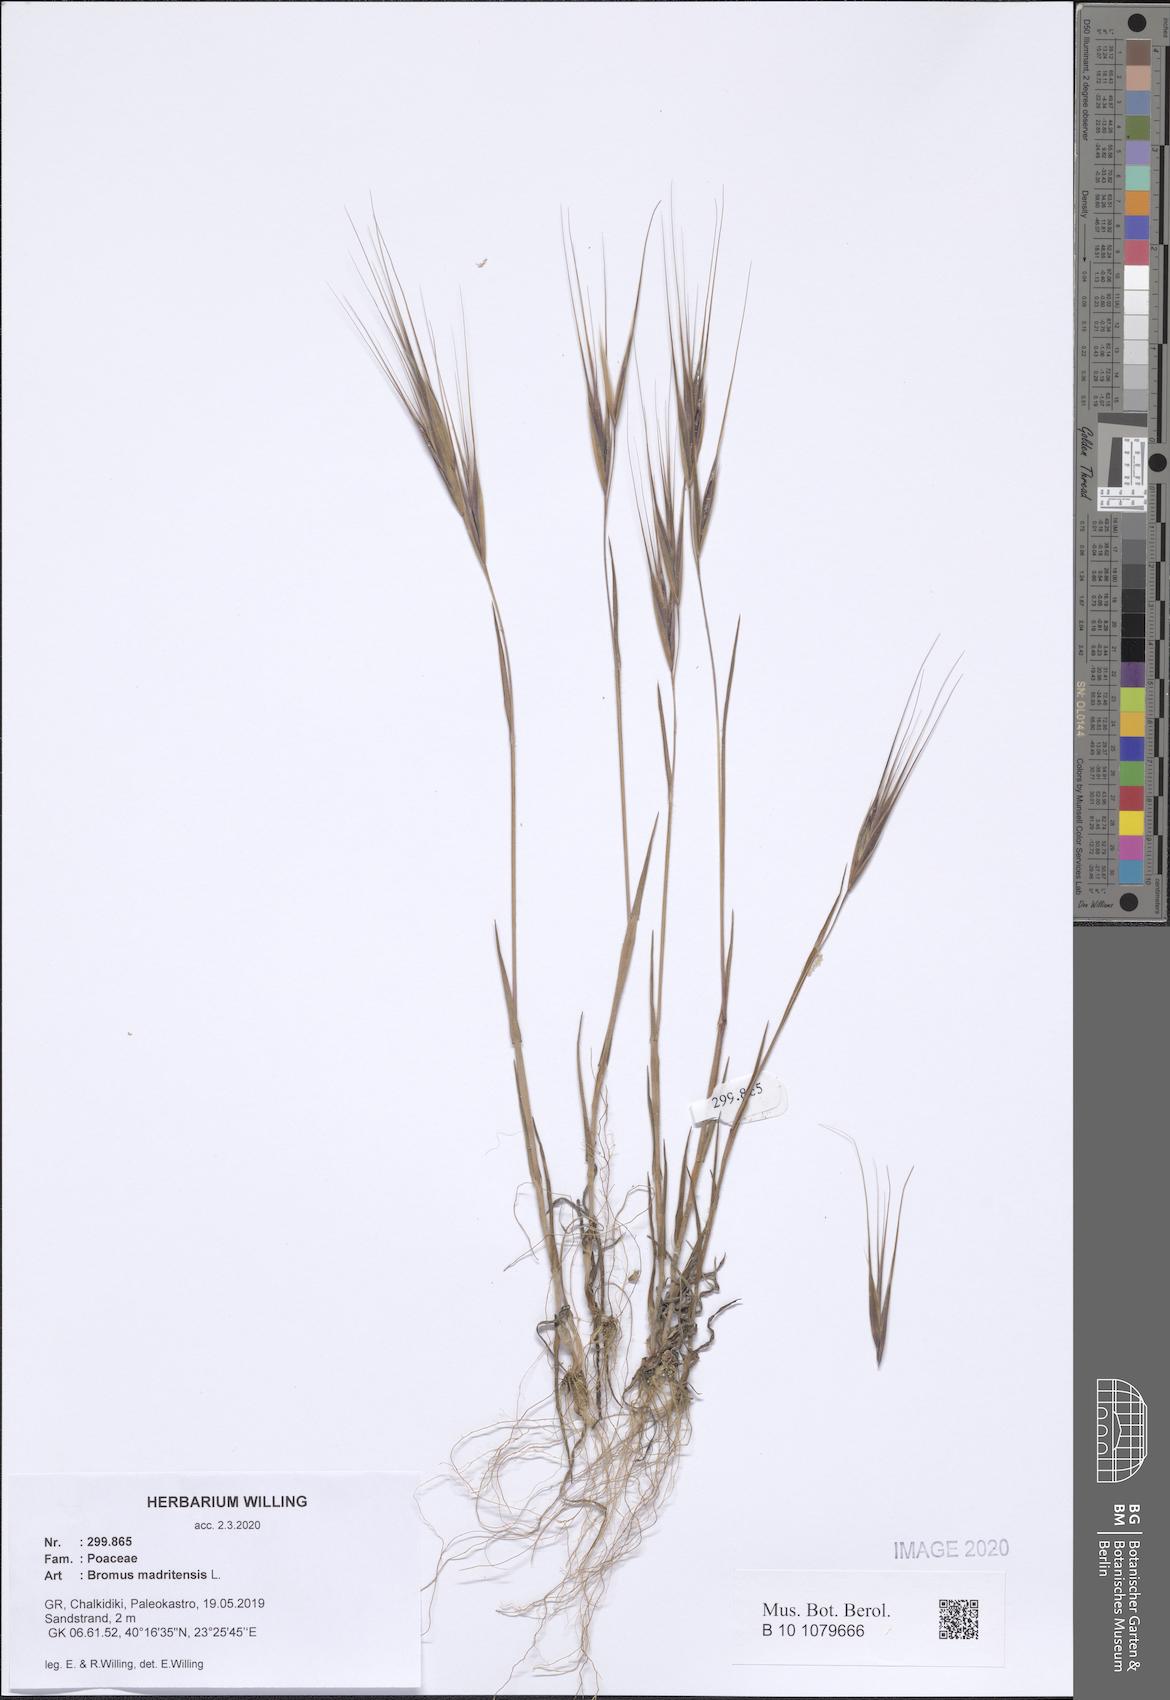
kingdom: Plantae
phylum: Tracheophyta
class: Liliopsida
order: Poales
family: Poaceae
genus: Bromus
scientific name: Bromus madritensis
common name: Compact brome
